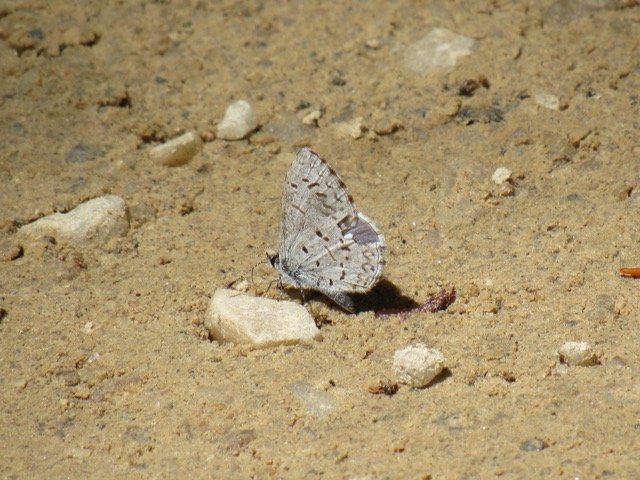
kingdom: Animalia
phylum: Arthropoda
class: Insecta
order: Lepidoptera
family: Lycaenidae
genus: Celastrina
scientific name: Celastrina lucia
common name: Northern Spring Azure
